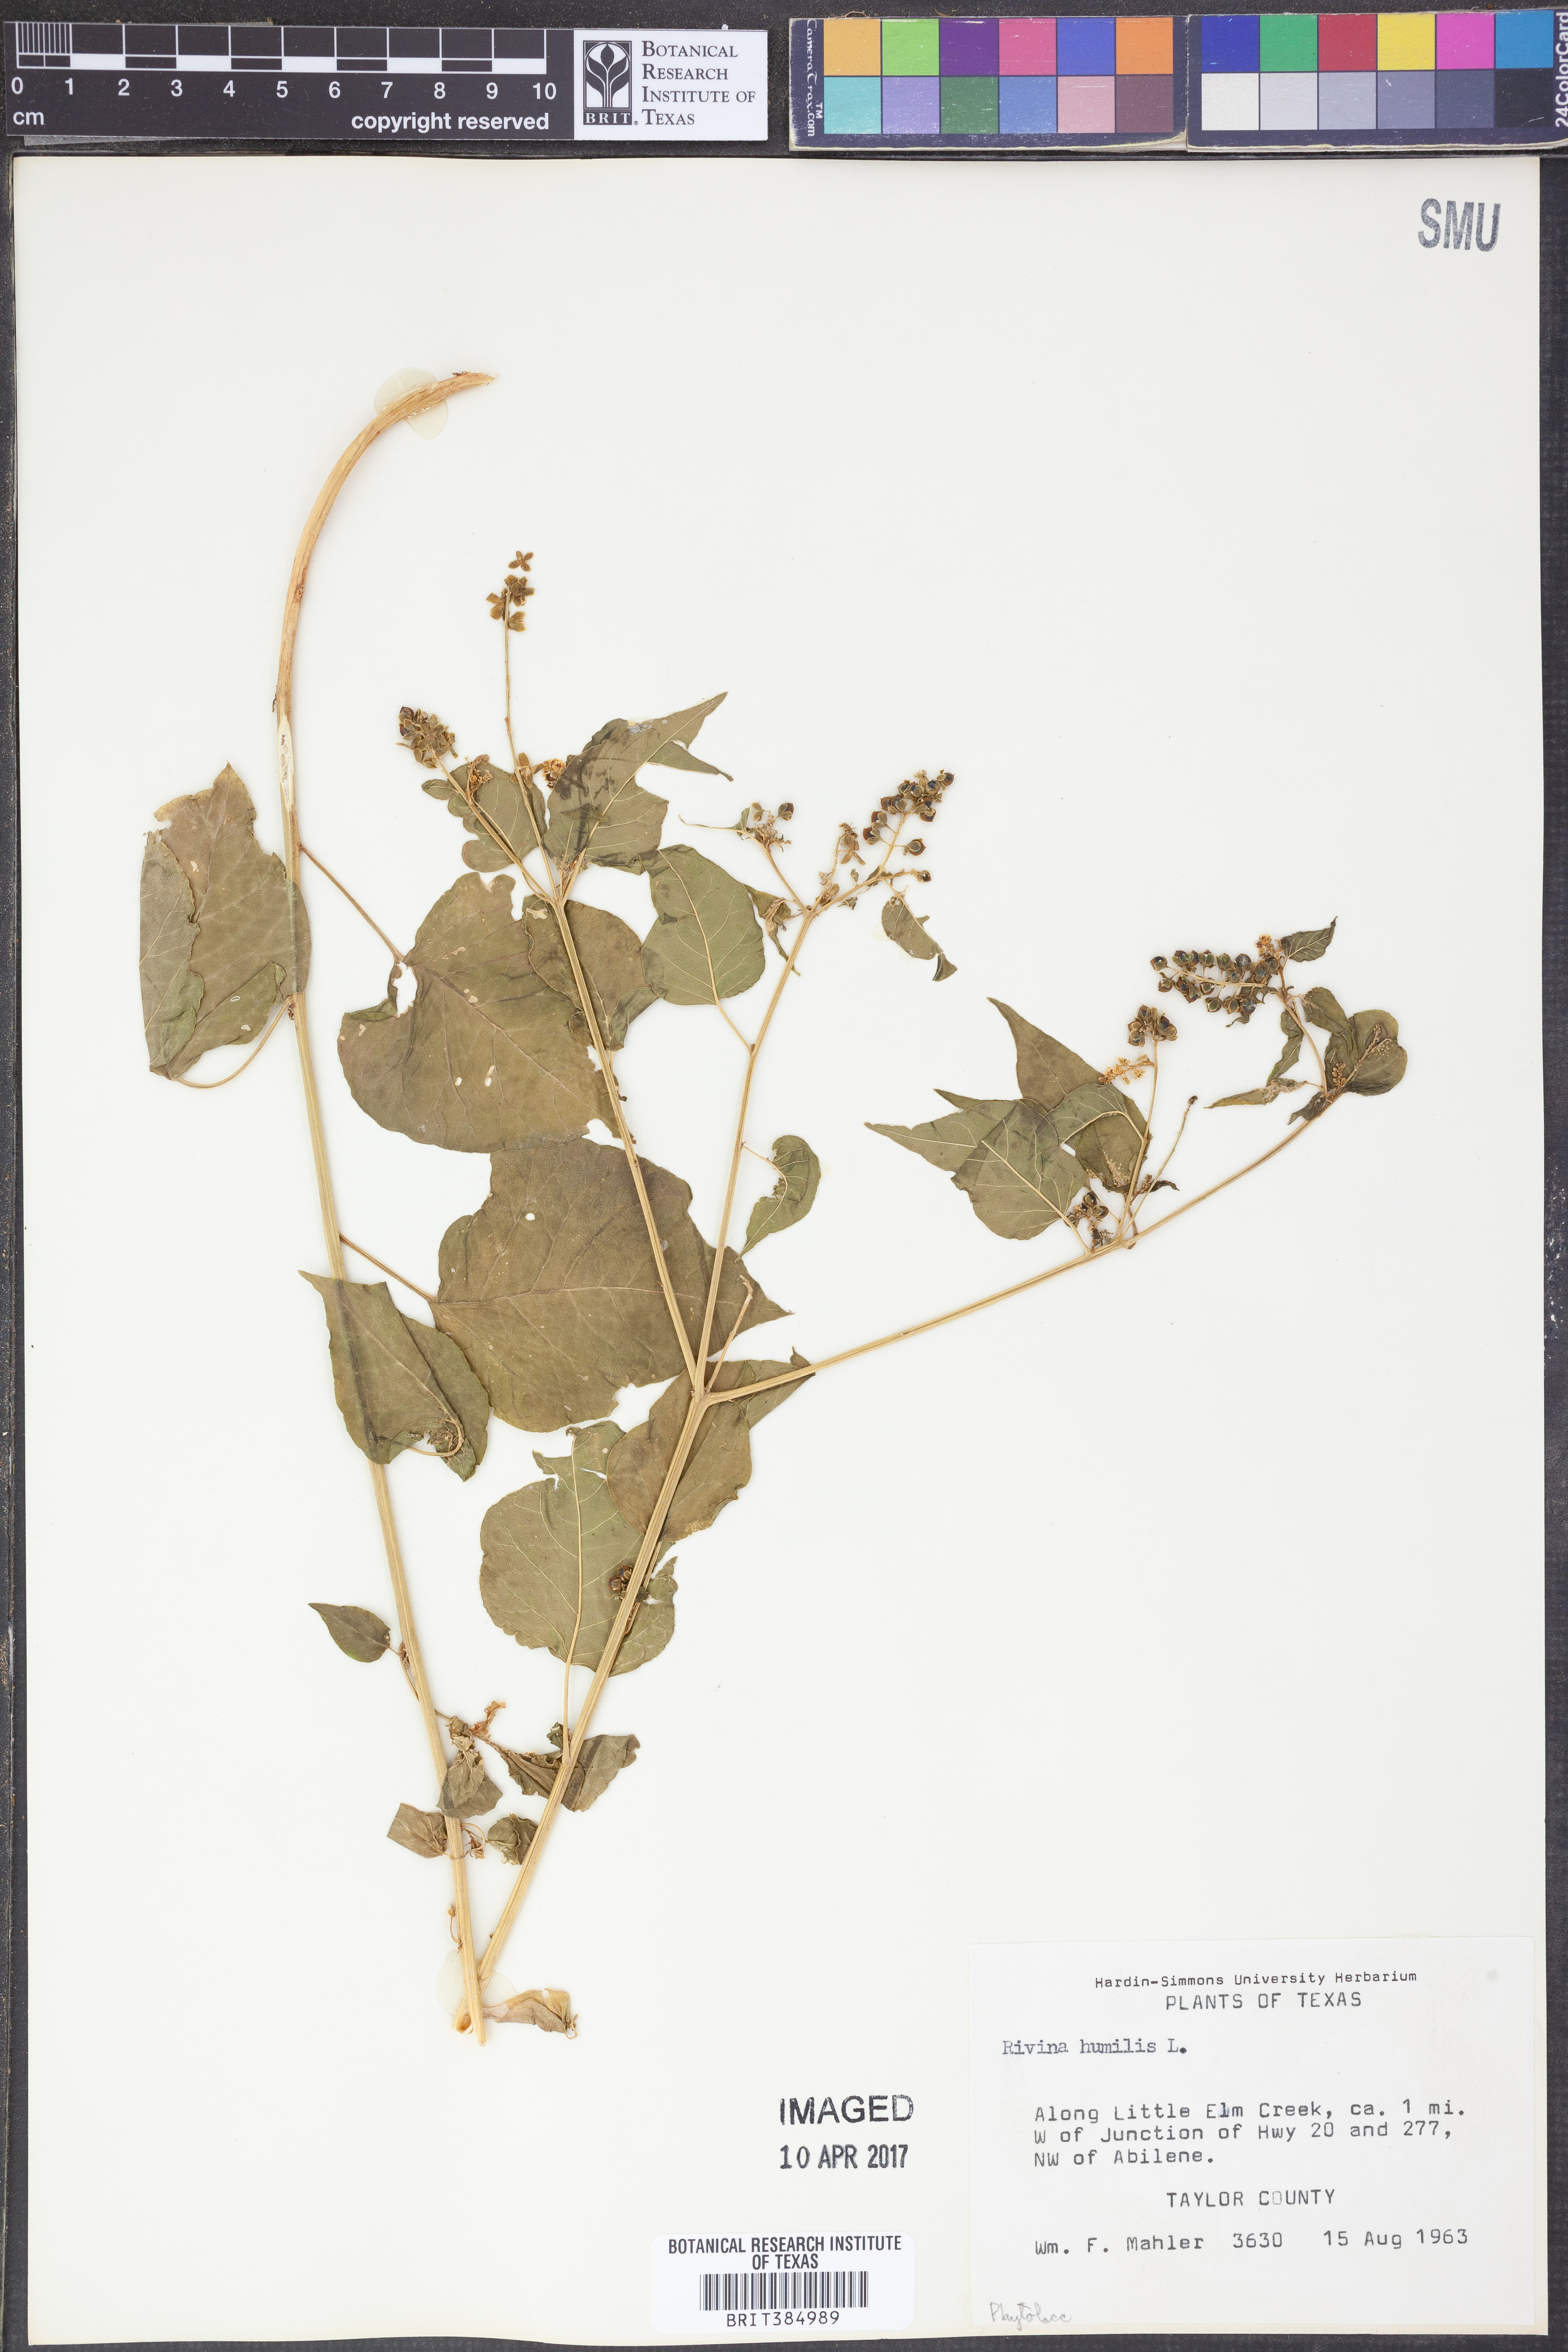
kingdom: Plantae
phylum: Tracheophyta
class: Magnoliopsida
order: Caryophyllales
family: Phytolaccaceae
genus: Rivina
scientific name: Rivina humilis
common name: Rougeplant
